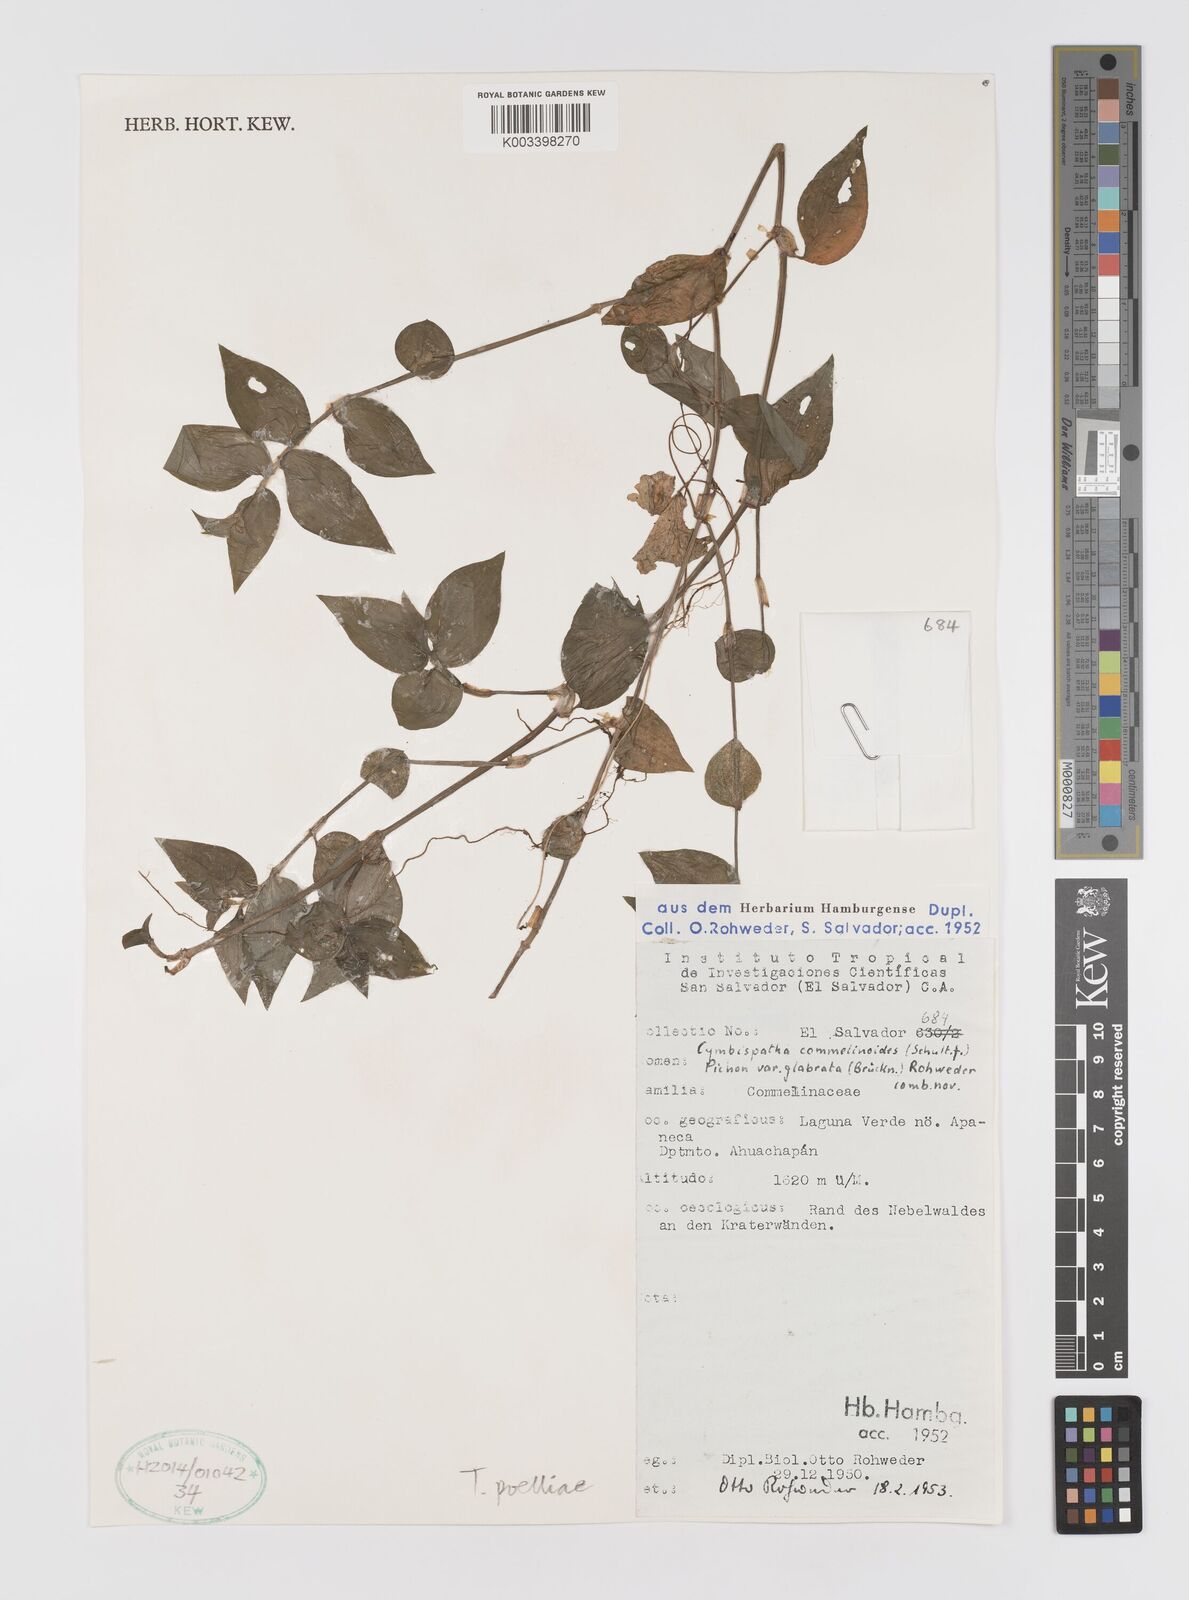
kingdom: Plantae
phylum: Tracheophyta
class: Liliopsida
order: Commelinales
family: Commelinaceae
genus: Tradescantia
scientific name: Tradescantia poelliae
